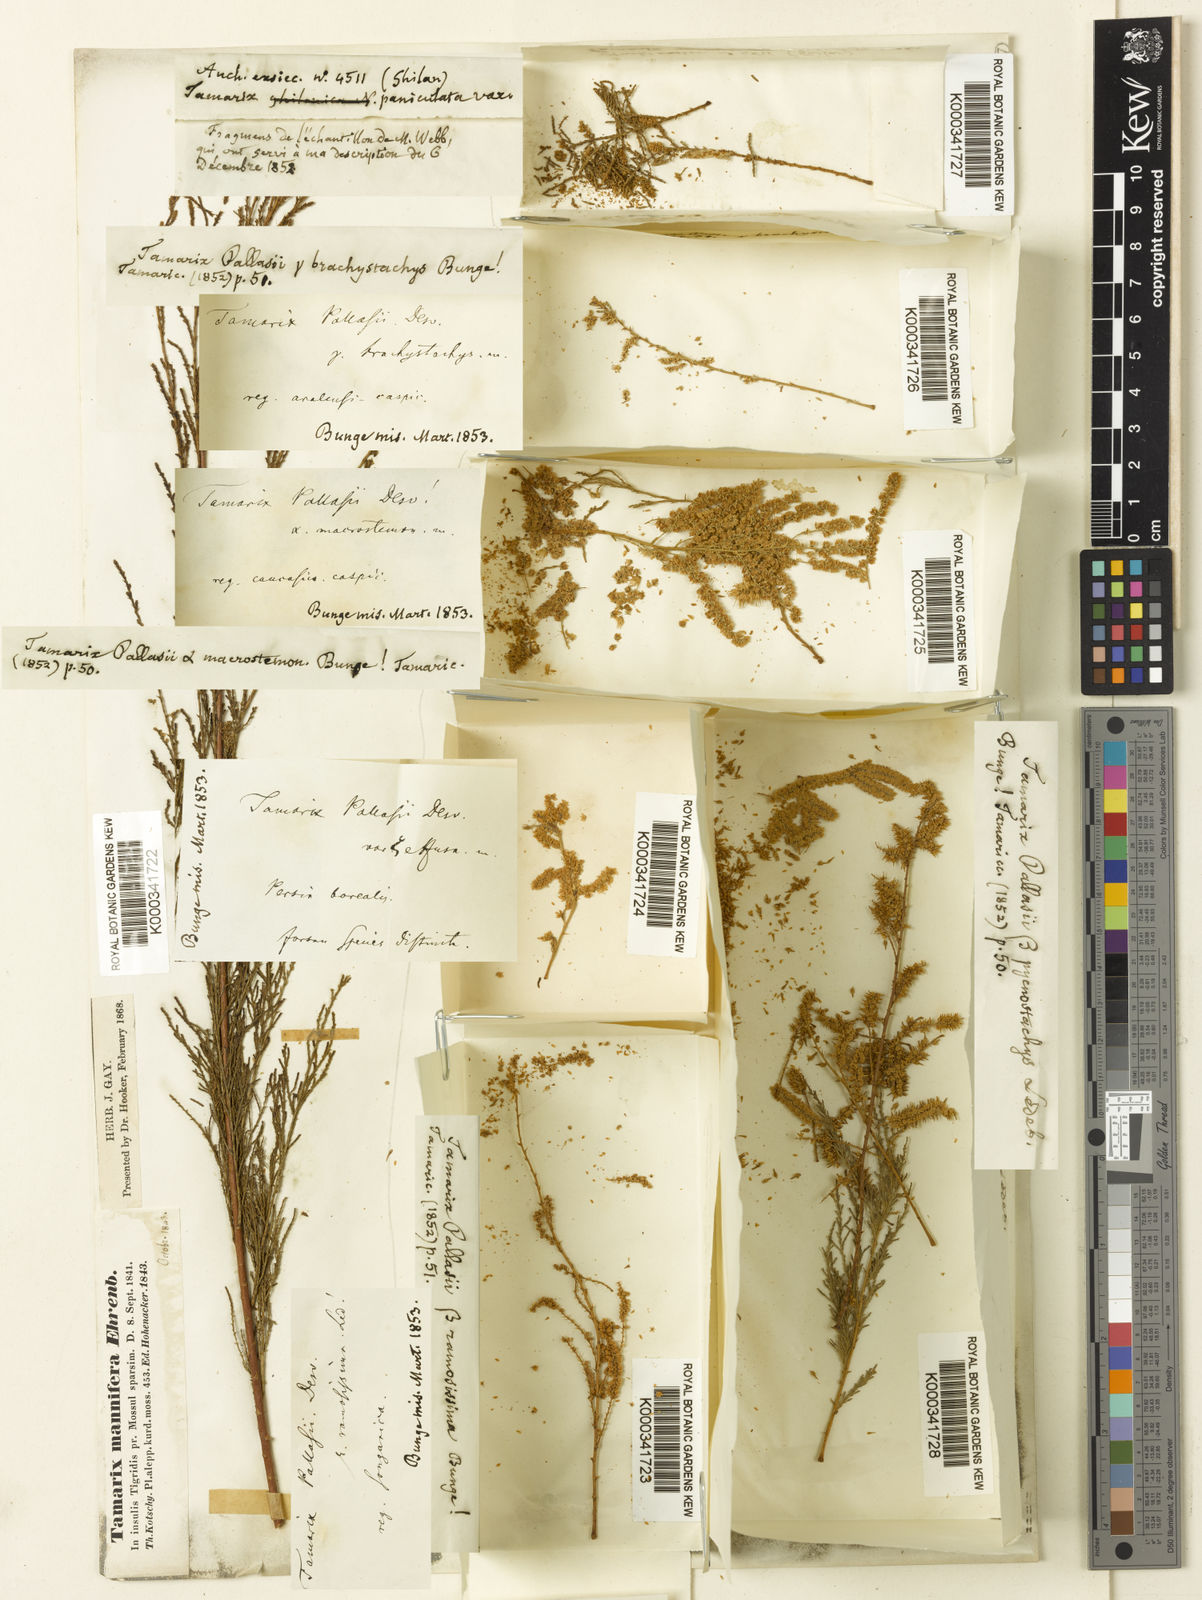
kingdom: Plantae
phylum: Tracheophyta
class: Magnoliopsida
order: Caryophyllales
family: Tamaricaceae
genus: Tamarix
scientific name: Tamarix ramosissima
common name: Pink tamarisk
